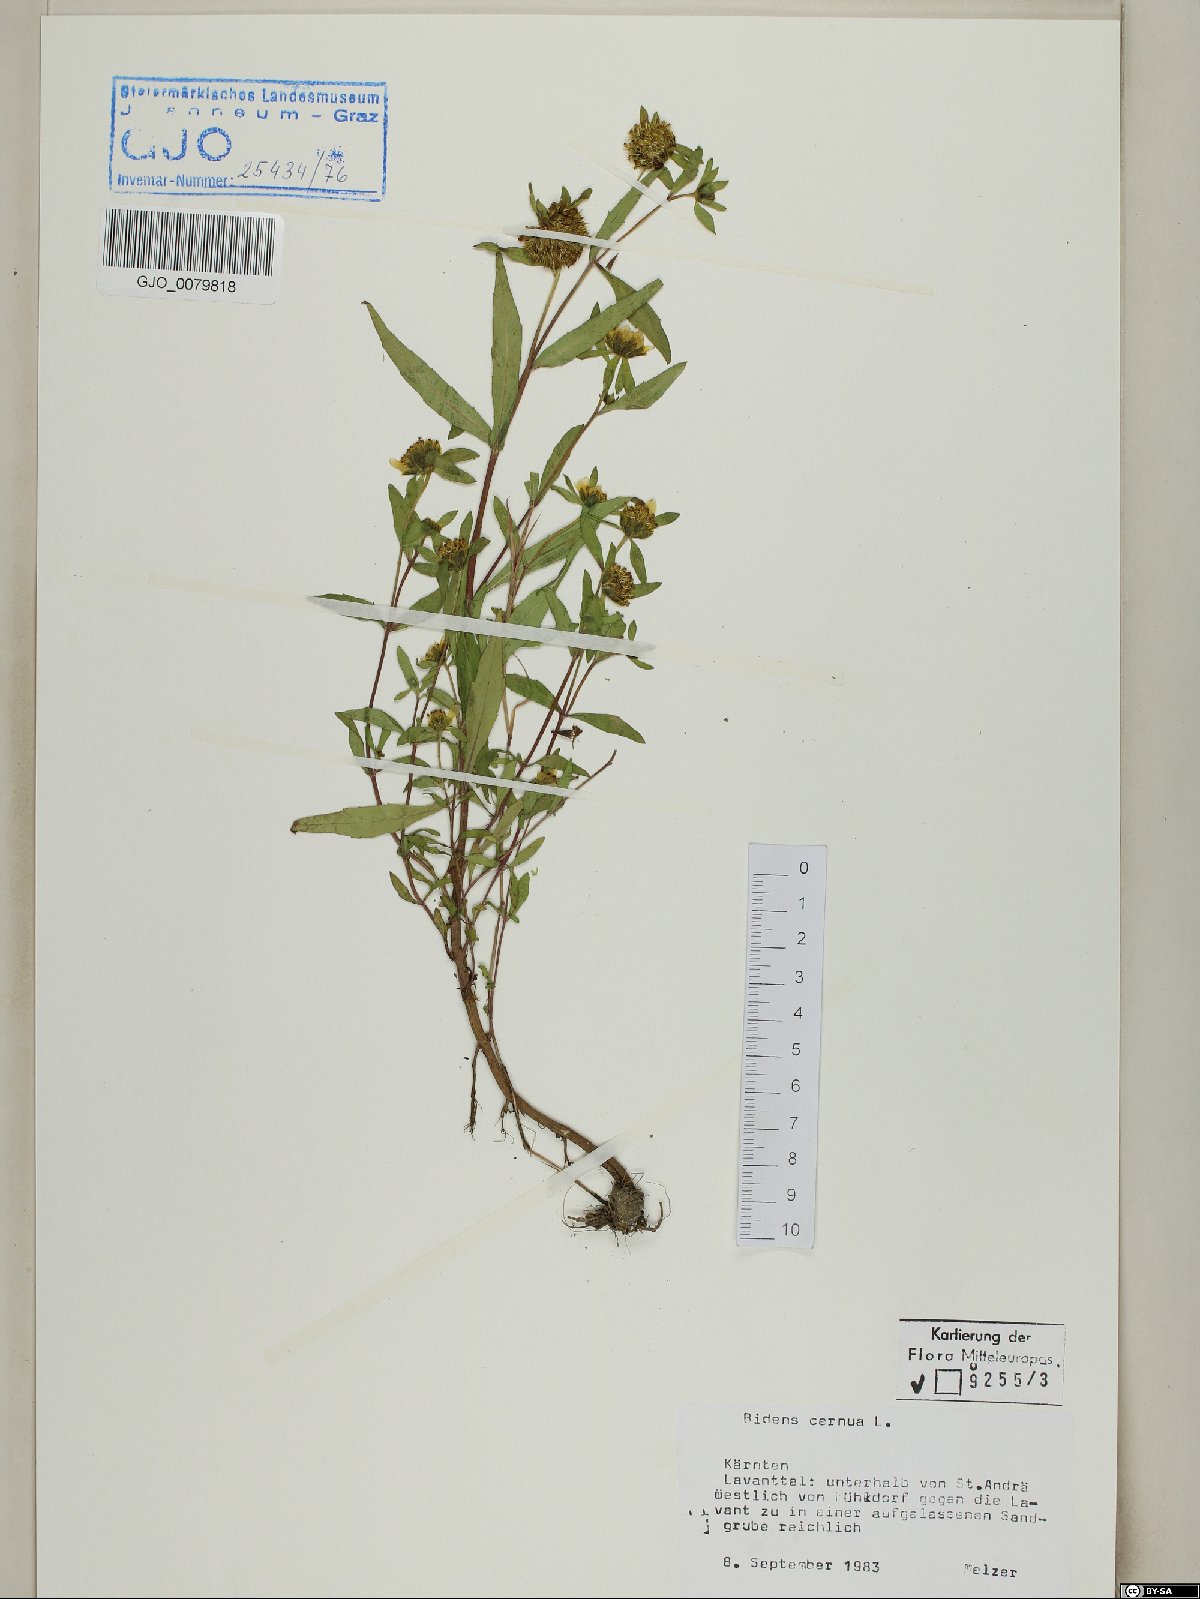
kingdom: Plantae
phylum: Tracheophyta
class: Magnoliopsida
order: Asterales
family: Asteraceae
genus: Bidens
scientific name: Bidens cernua
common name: Nodding bur-marigold
